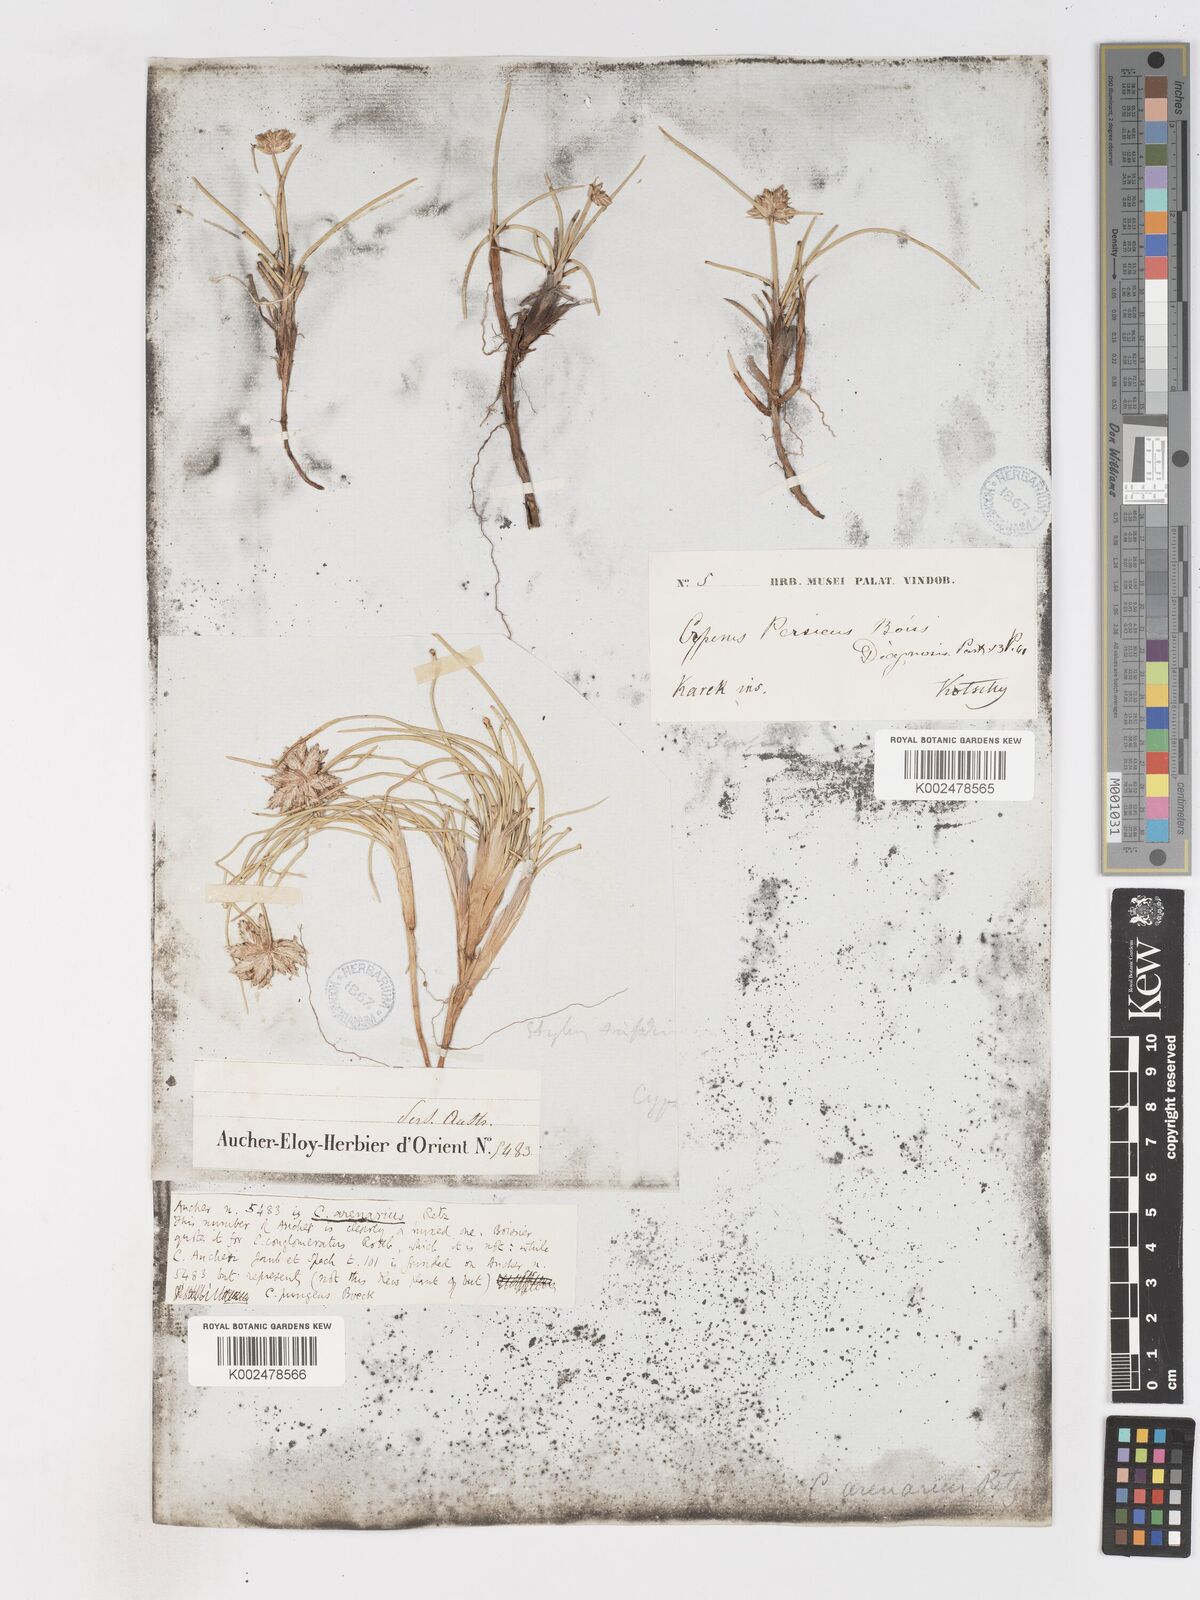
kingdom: Plantae
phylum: Tracheophyta
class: Liliopsida
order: Poales
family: Cyperaceae
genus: Cyperus
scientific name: Cyperus arenarius
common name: Dwarf sedge
